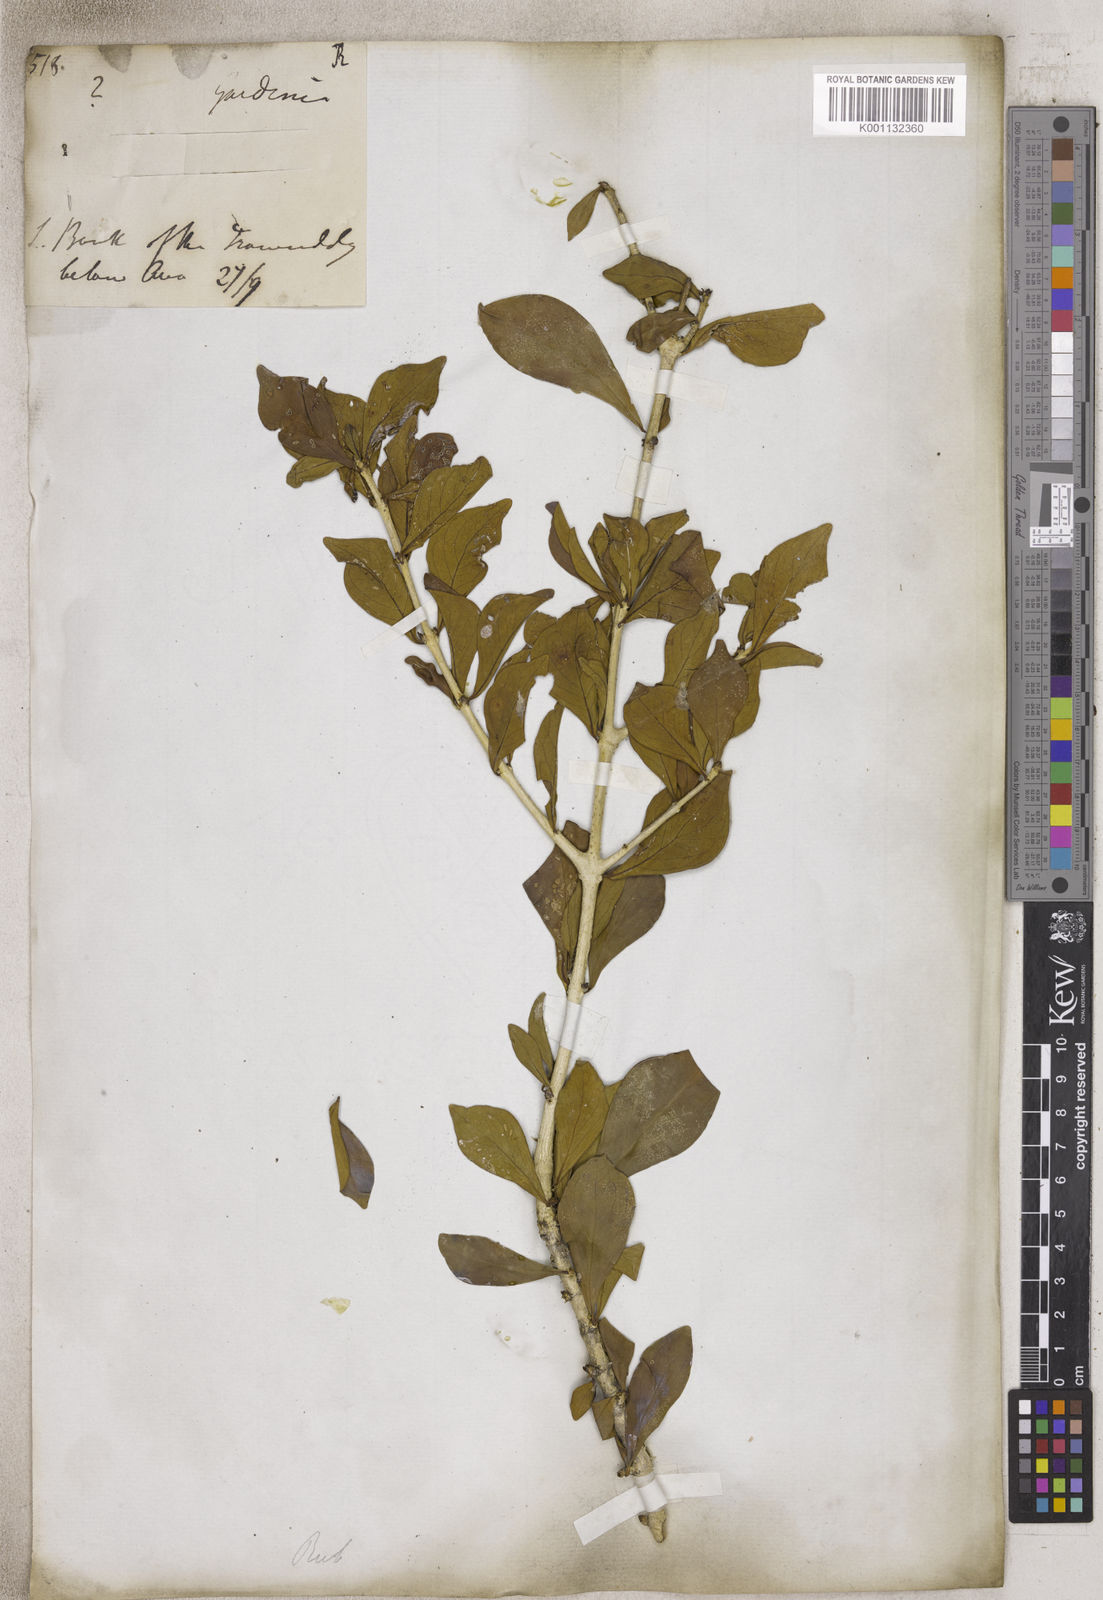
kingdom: Plantae
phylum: Tracheophyta
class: Magnoliopsida
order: Gentianales
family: Rubiaceae
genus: Gardenia
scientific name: Gardenia
